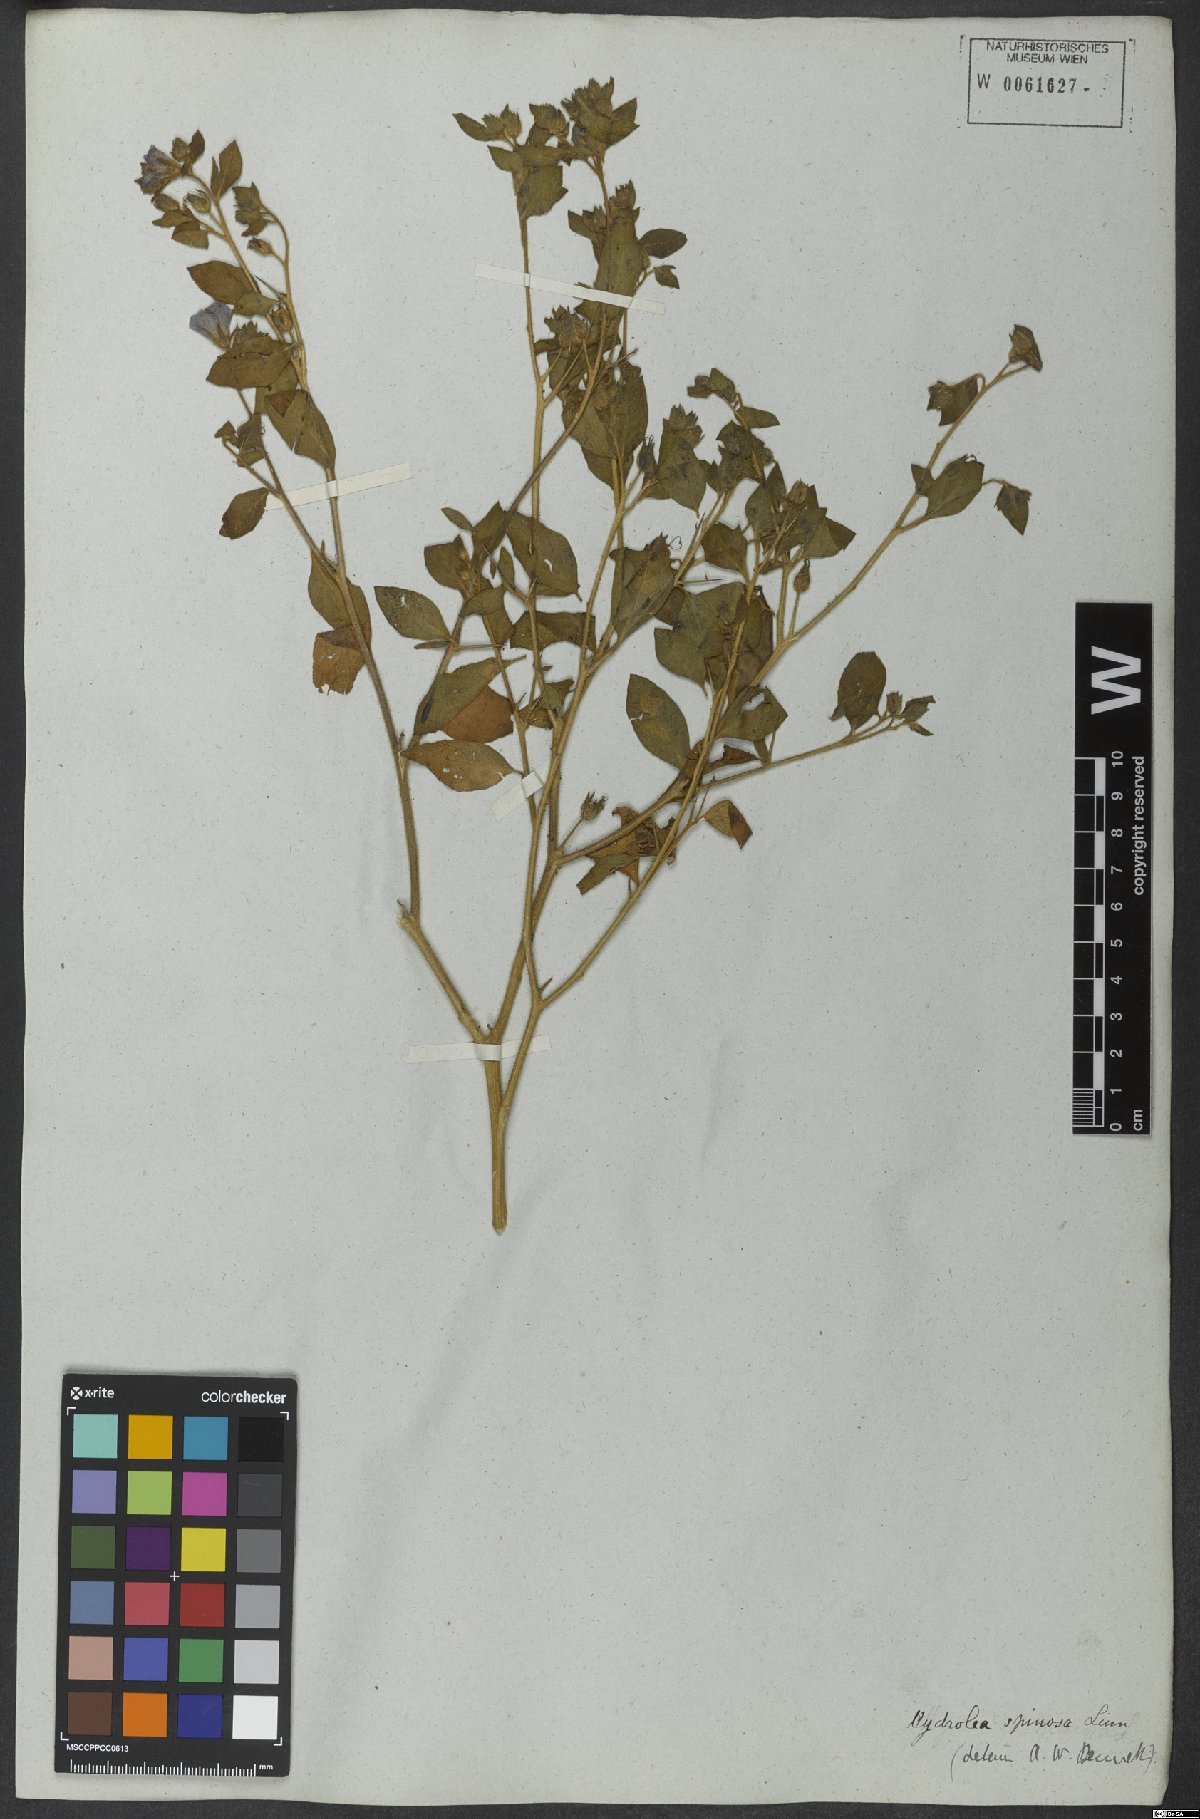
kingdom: Plantae
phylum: Tracheophyta
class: Magnoliopsida
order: Solanales
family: Hydroleaceae
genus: Hydrolea
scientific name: Hydrolea spinosa
